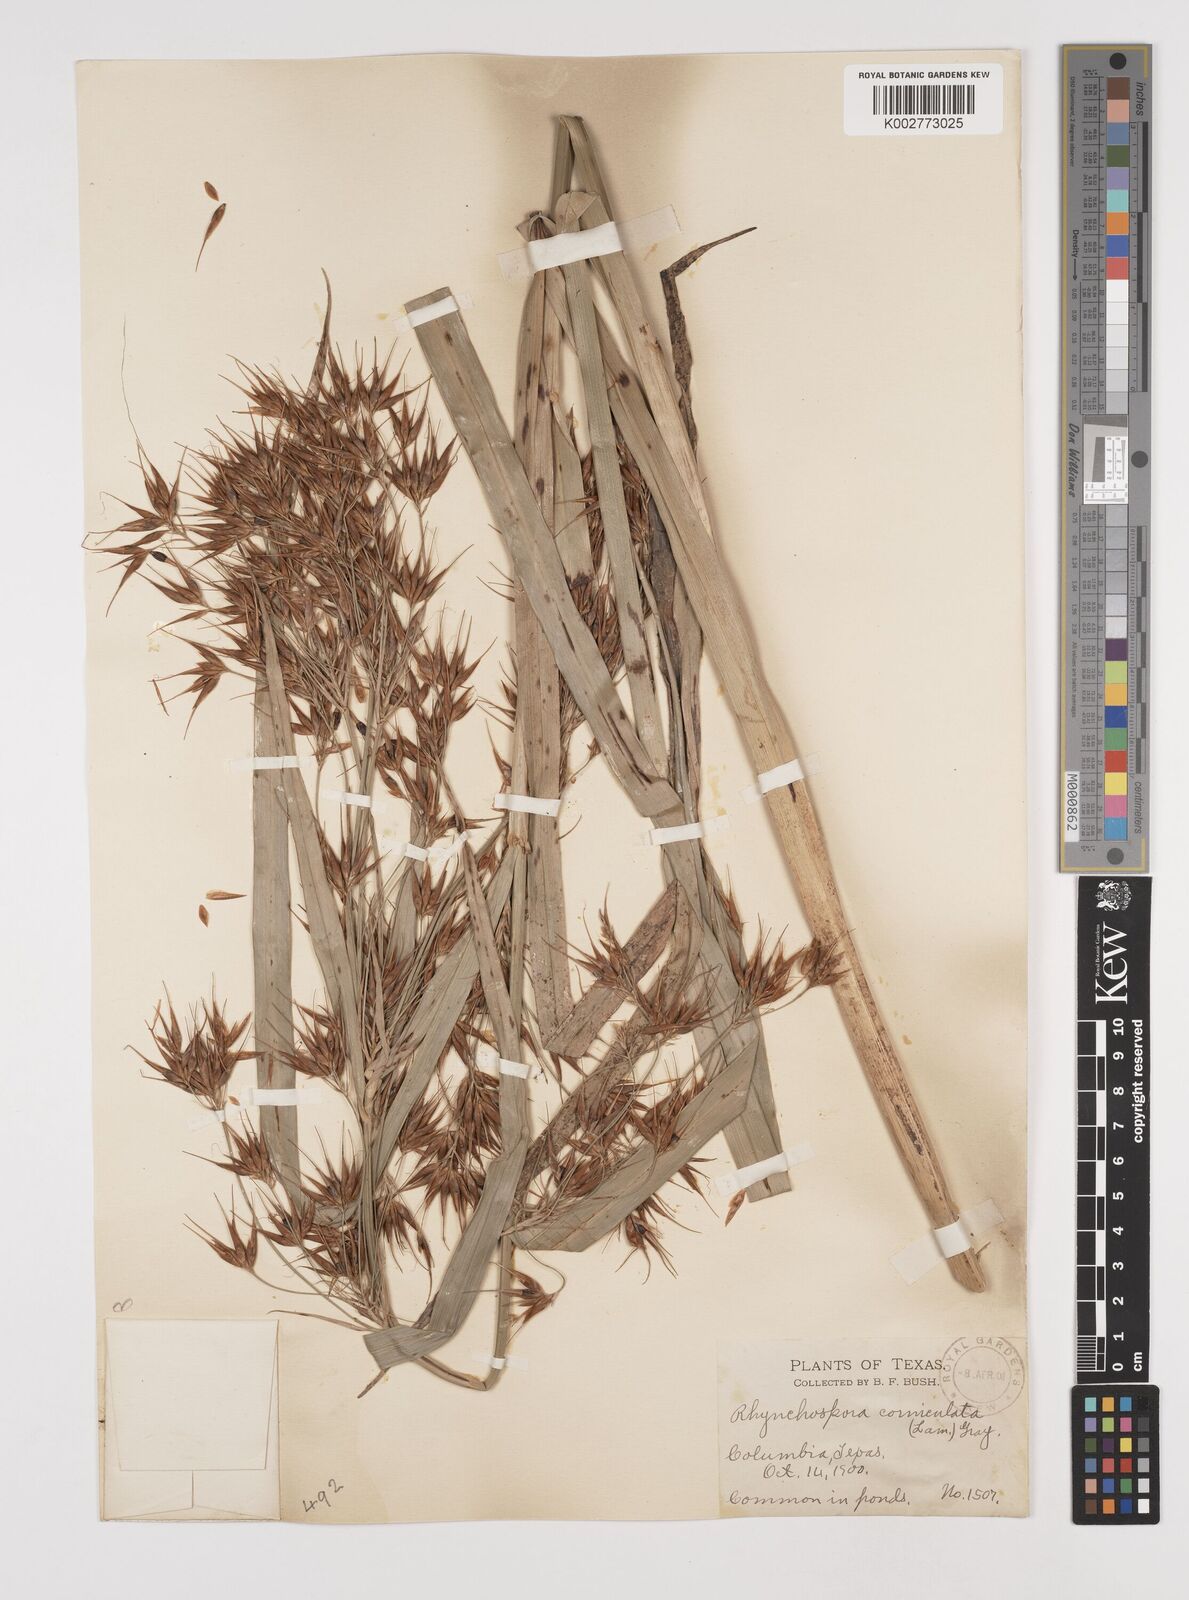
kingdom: Plantae
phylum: Tracheophyta
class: Liliopsida
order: Poales
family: Cyperaceae
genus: Rhynchospora
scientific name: Rhynchospora corniculata
